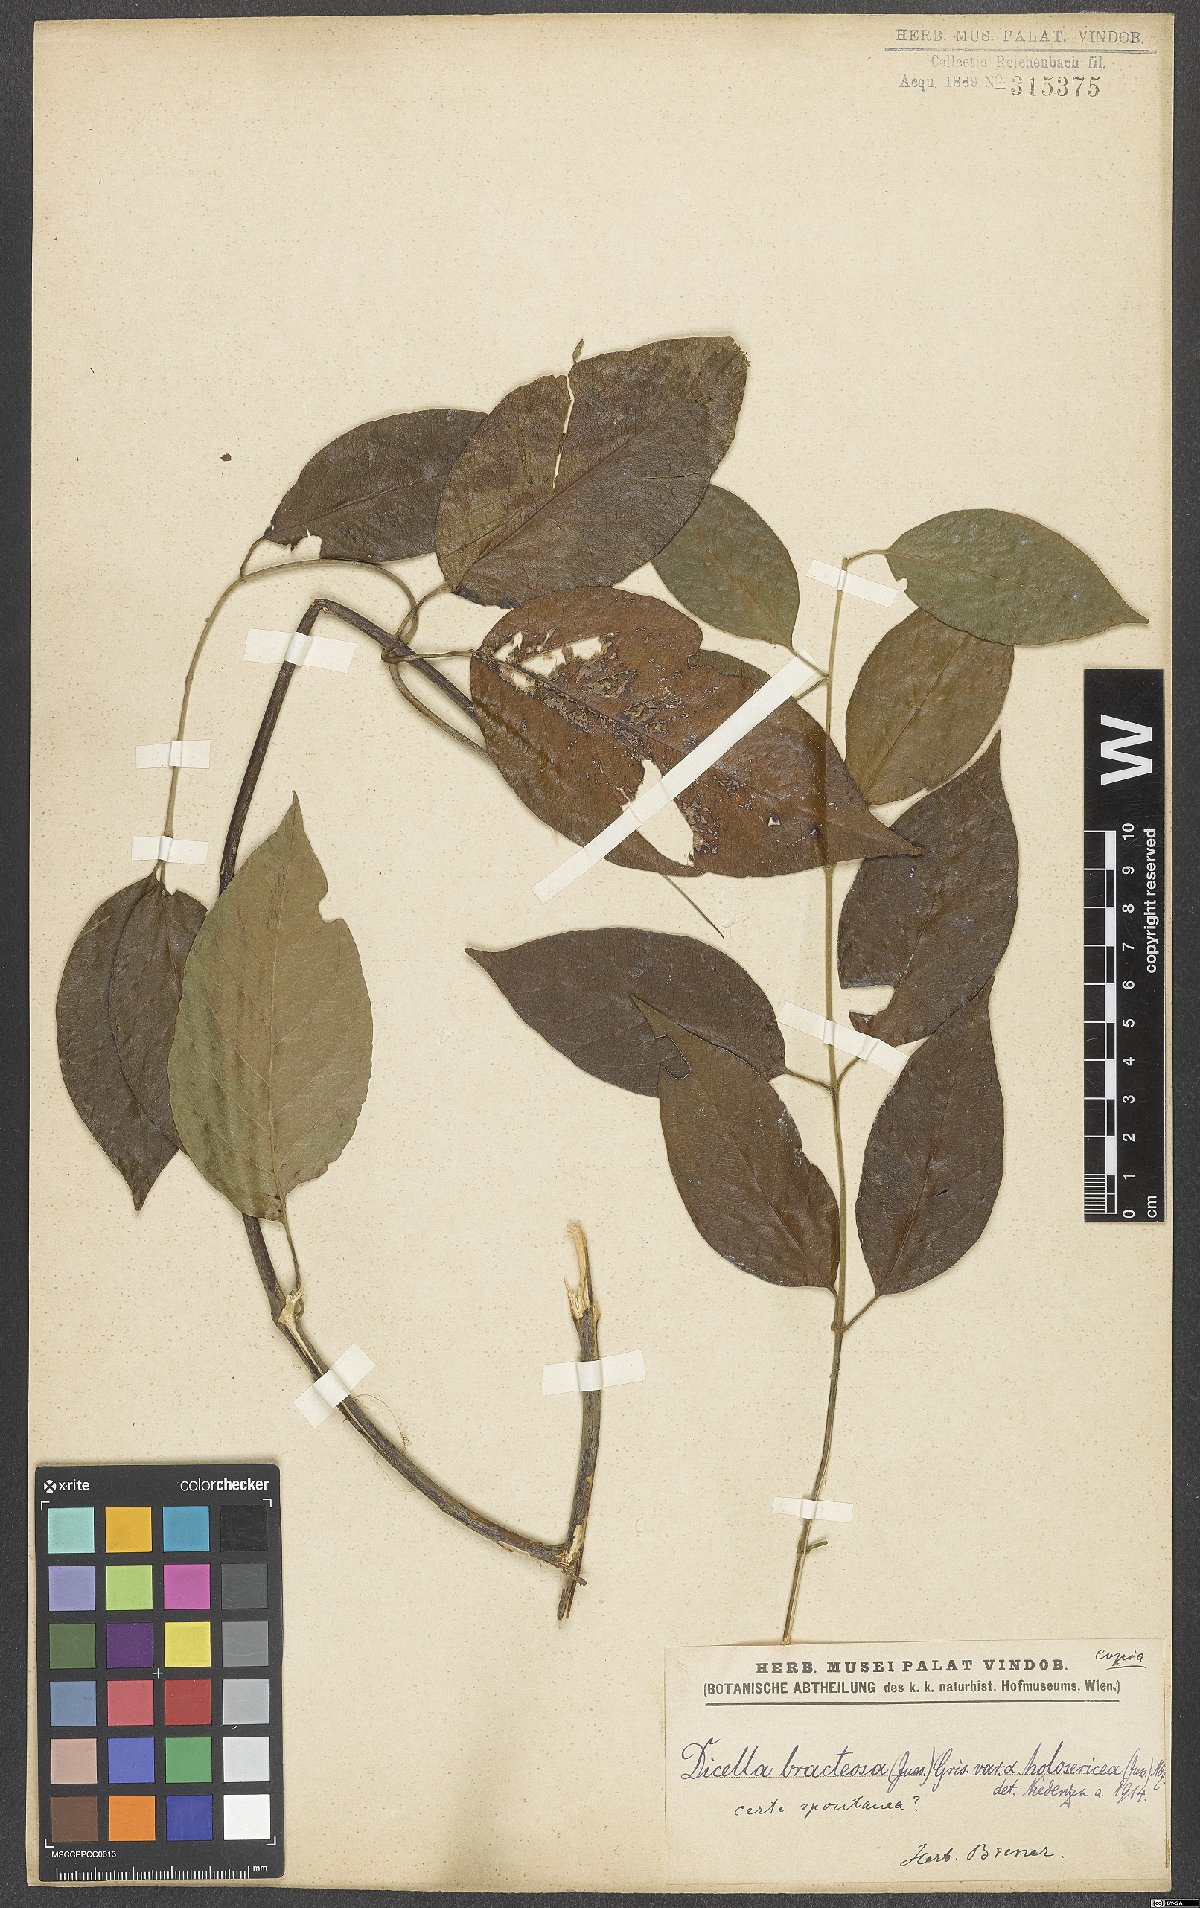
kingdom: Plantae
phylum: Tracheophyta
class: Magnoliopsida
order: Malpighiales
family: Malpighiaceae
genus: Dicella
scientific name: Dicella bracteosa
